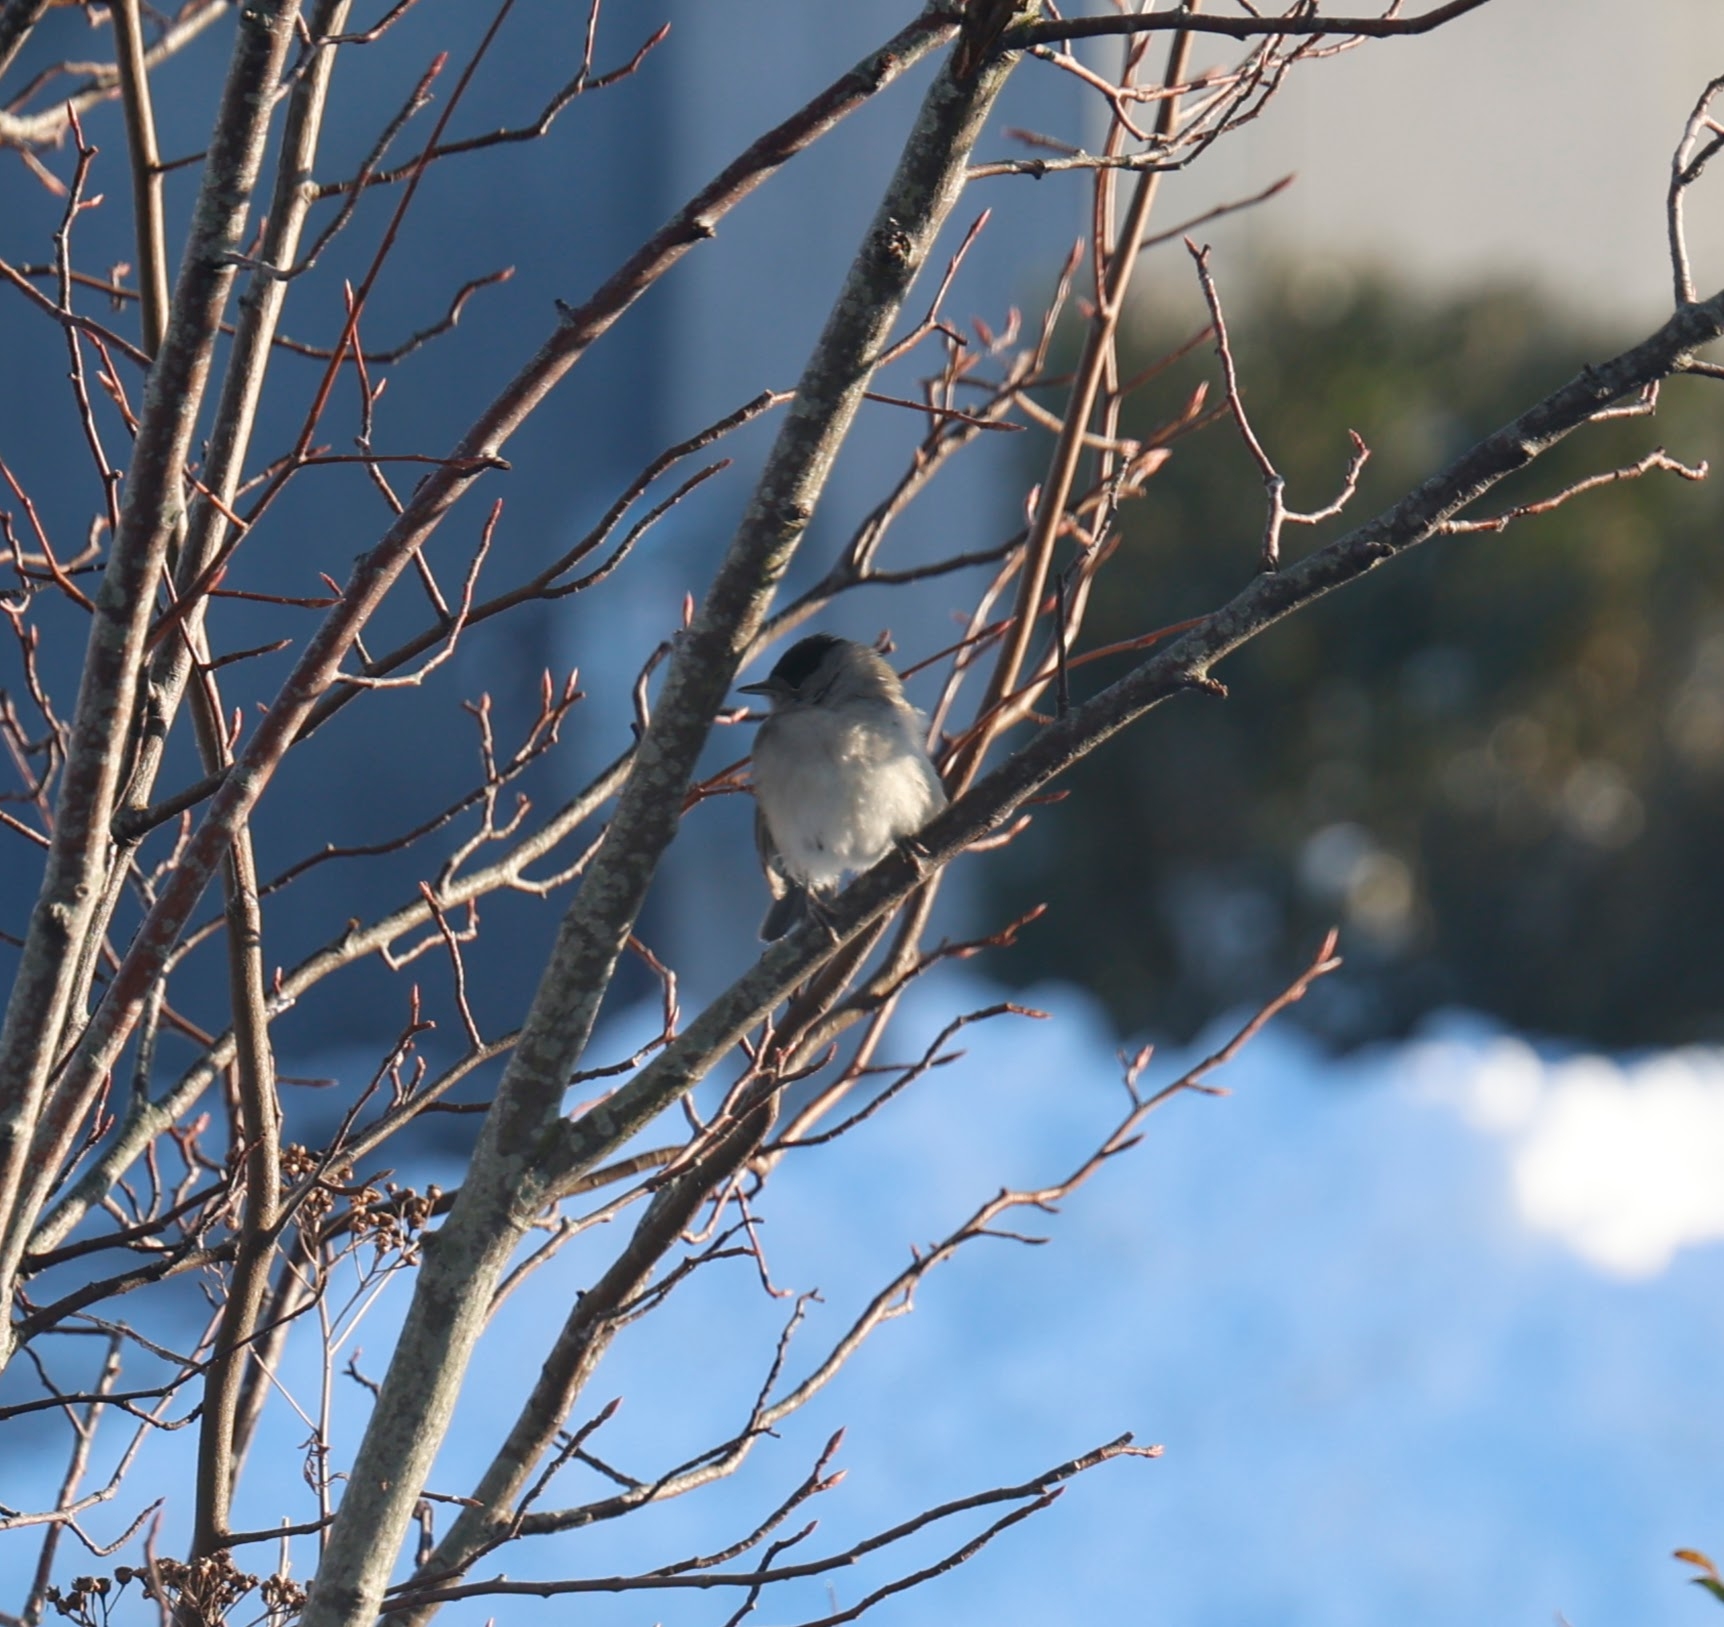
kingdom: Animalia
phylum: Chordata
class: Aves
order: Passeriformes
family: Sylviidae
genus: Sylvia
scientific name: Sylvia atricapilla
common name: Munk
